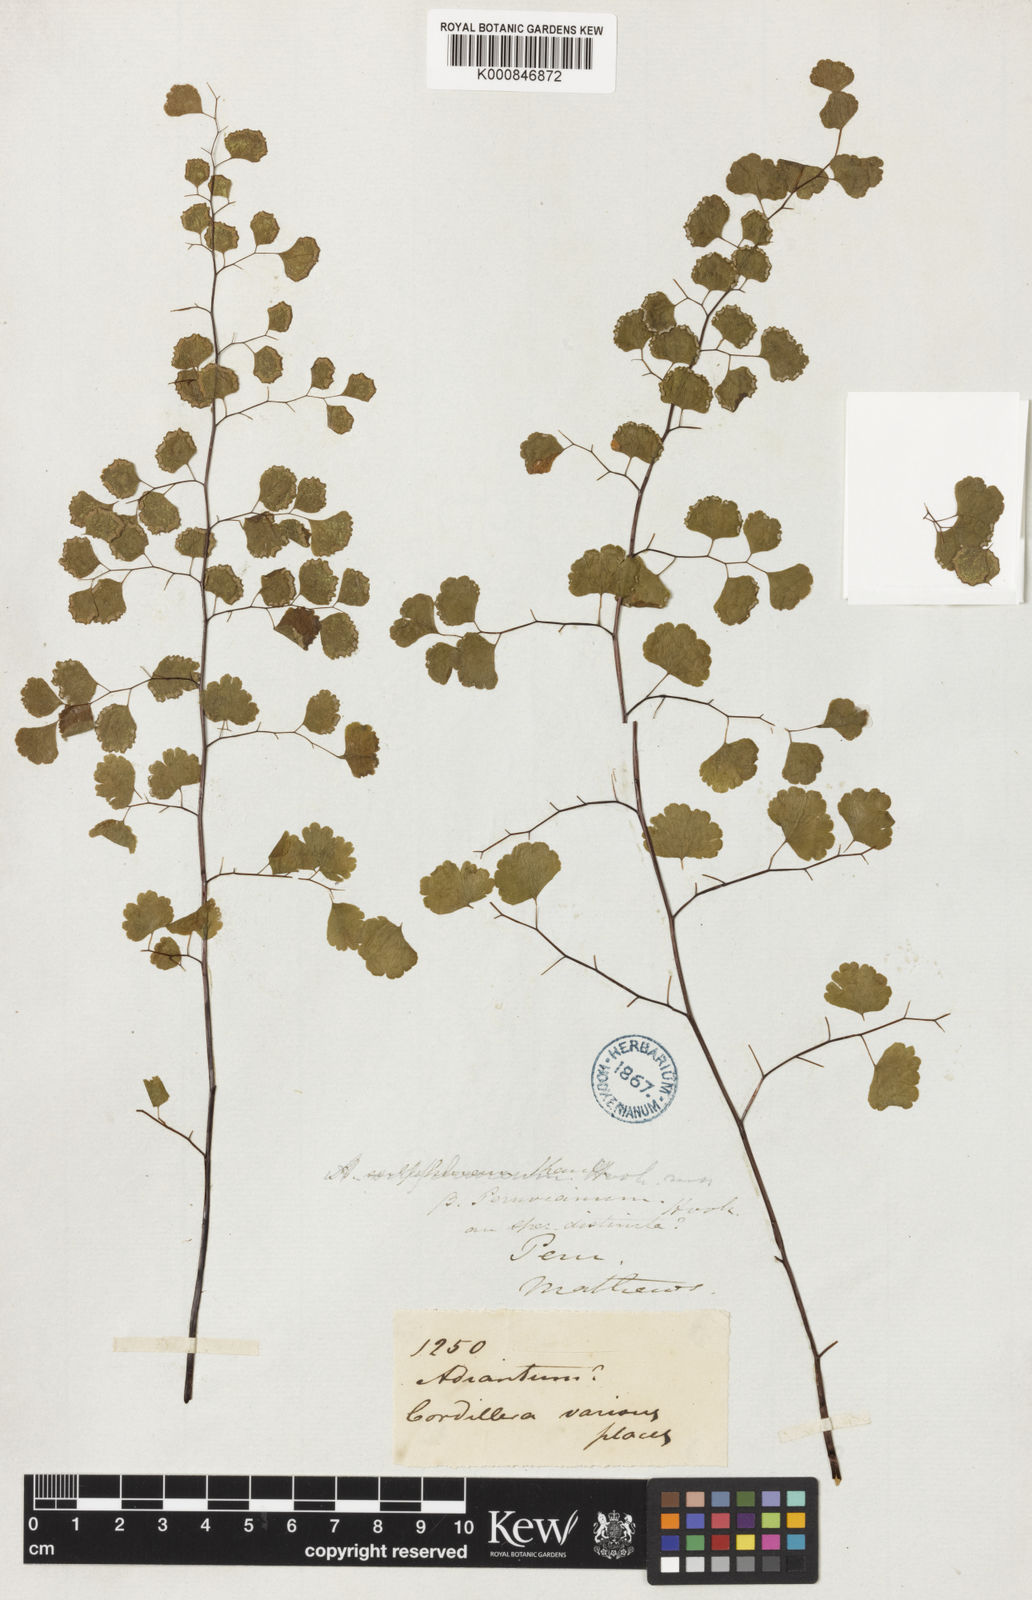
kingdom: Plantae
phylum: Tracheophyta
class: Polypodiopsida
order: Polypodiales
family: Pteridaceae
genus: Adiantum
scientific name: Adiantum chilense
